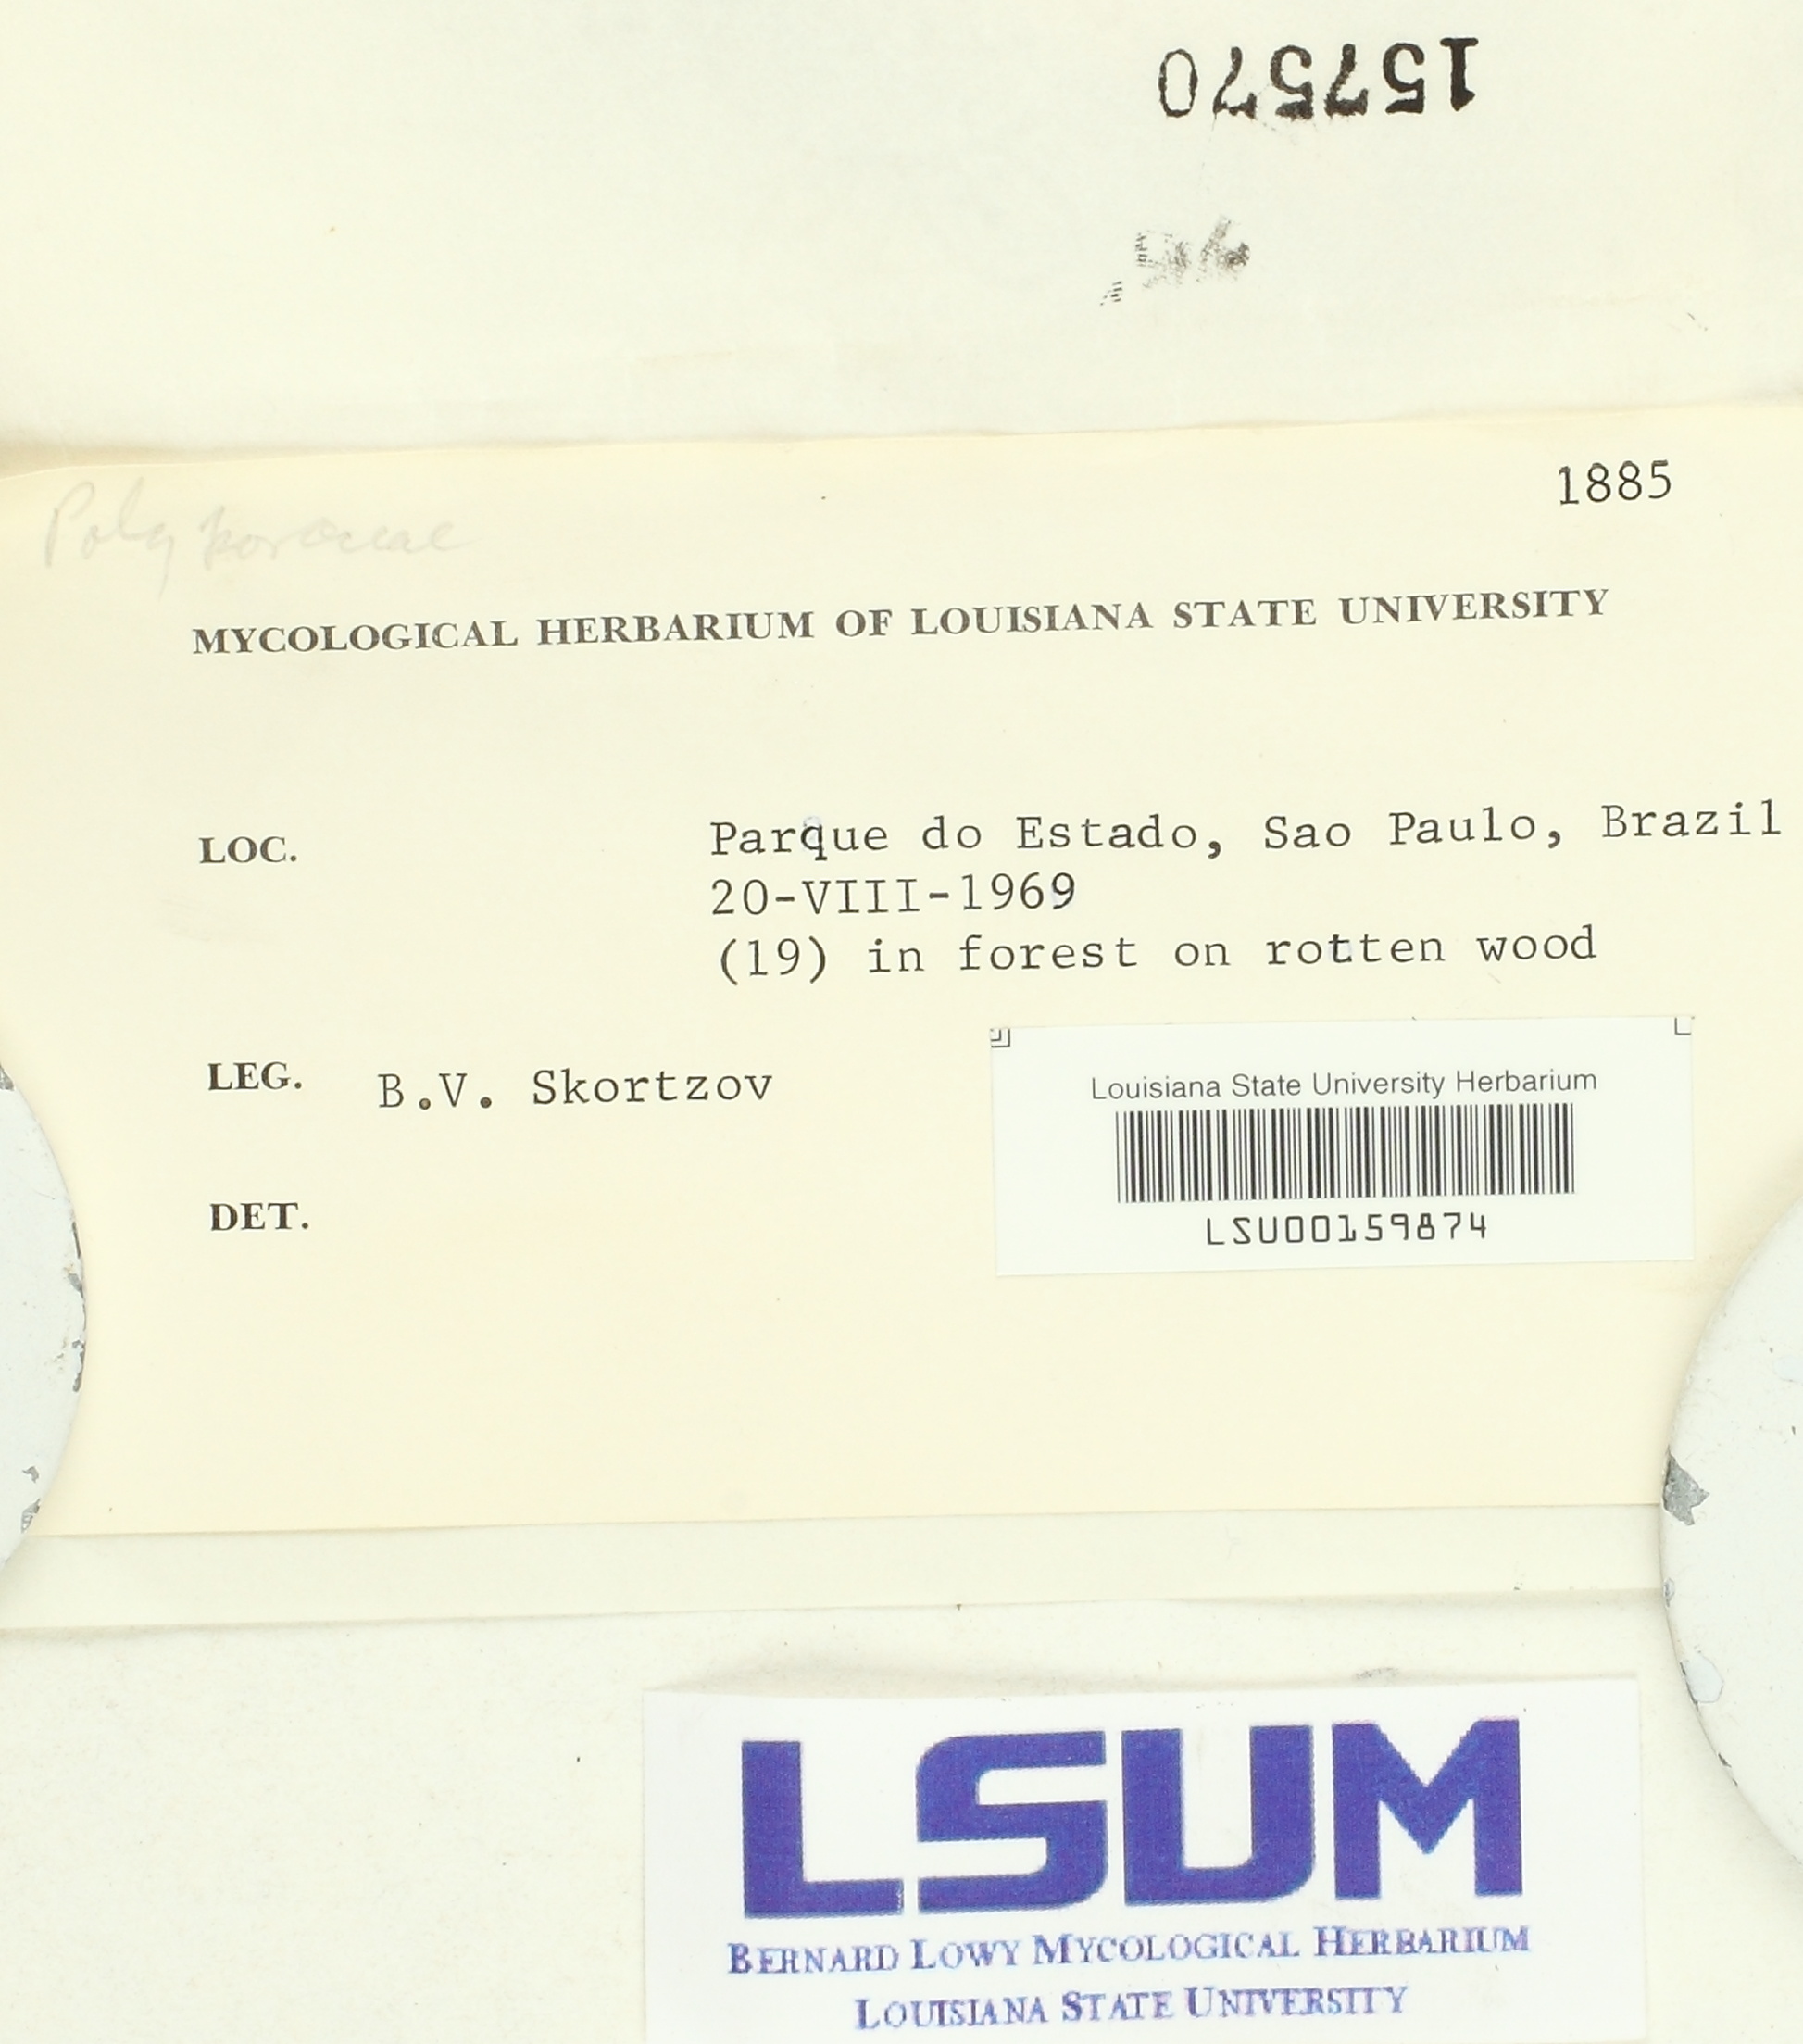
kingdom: Fungi
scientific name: Fungi
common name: Fungi
